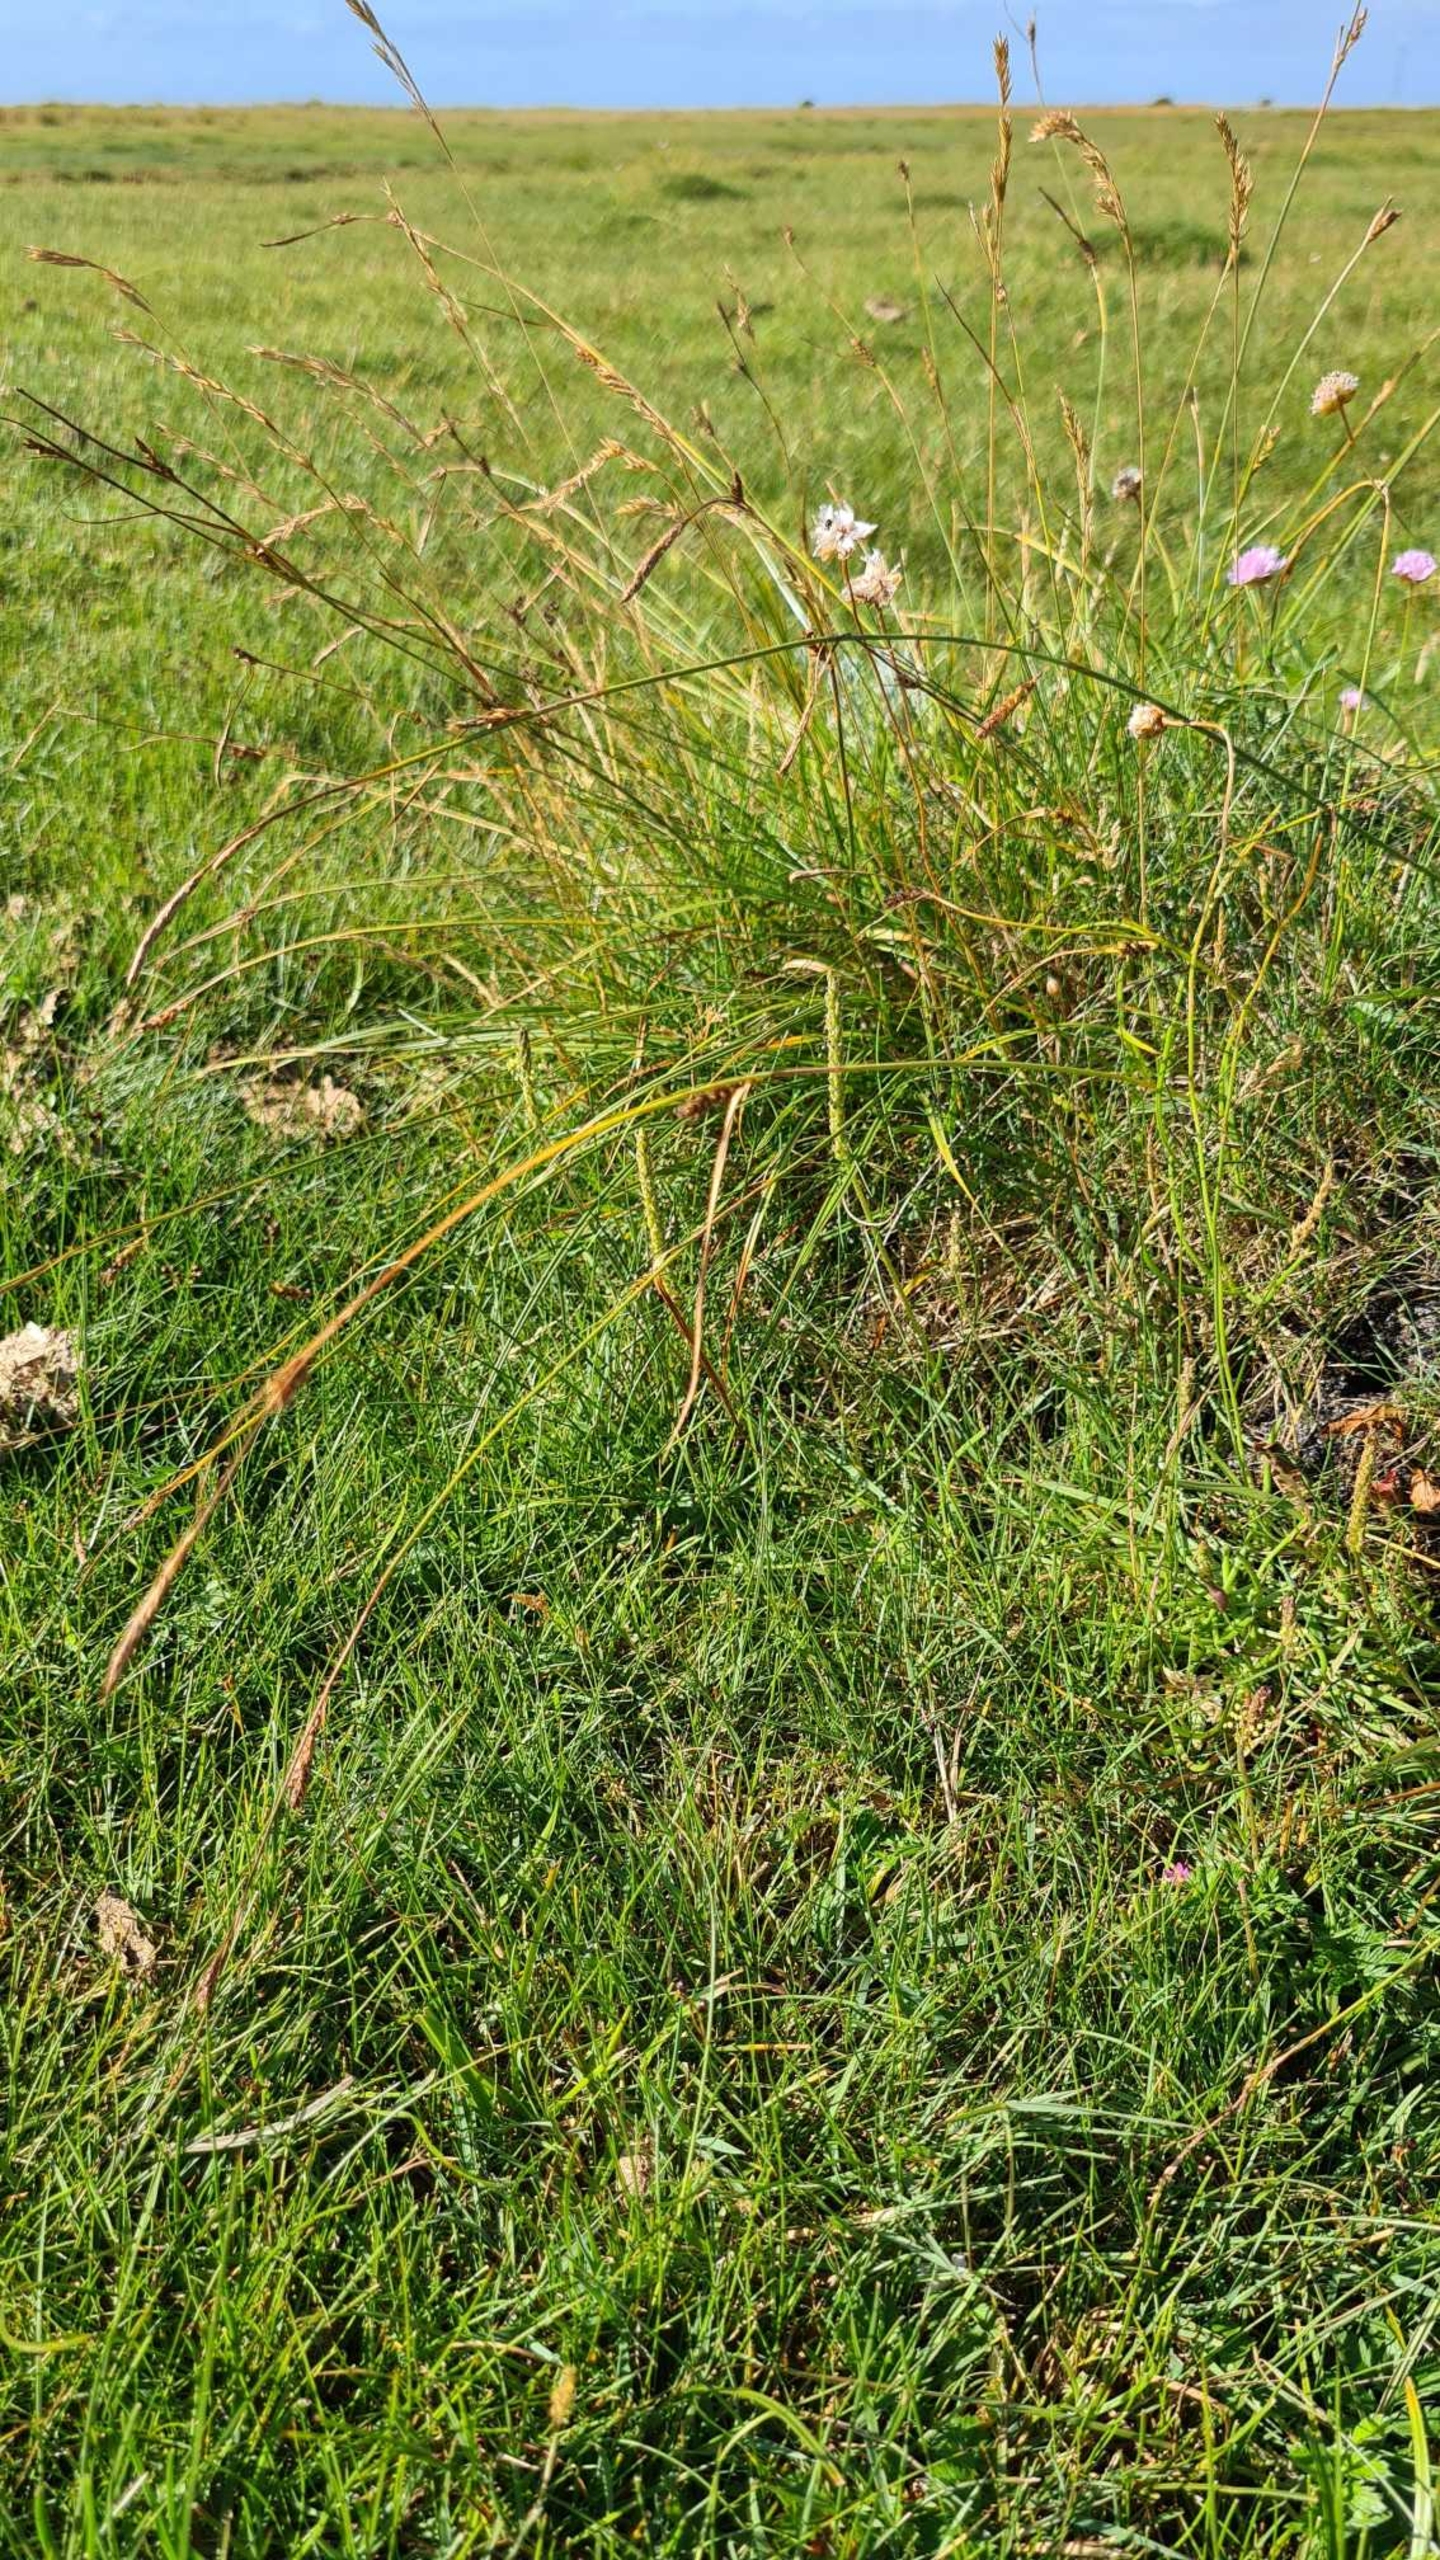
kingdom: Plantae
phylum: Tracheophyta
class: Liliopsida
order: Poales
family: Cyperaceae
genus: Carex
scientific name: Carex distans
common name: Fjernakset star
